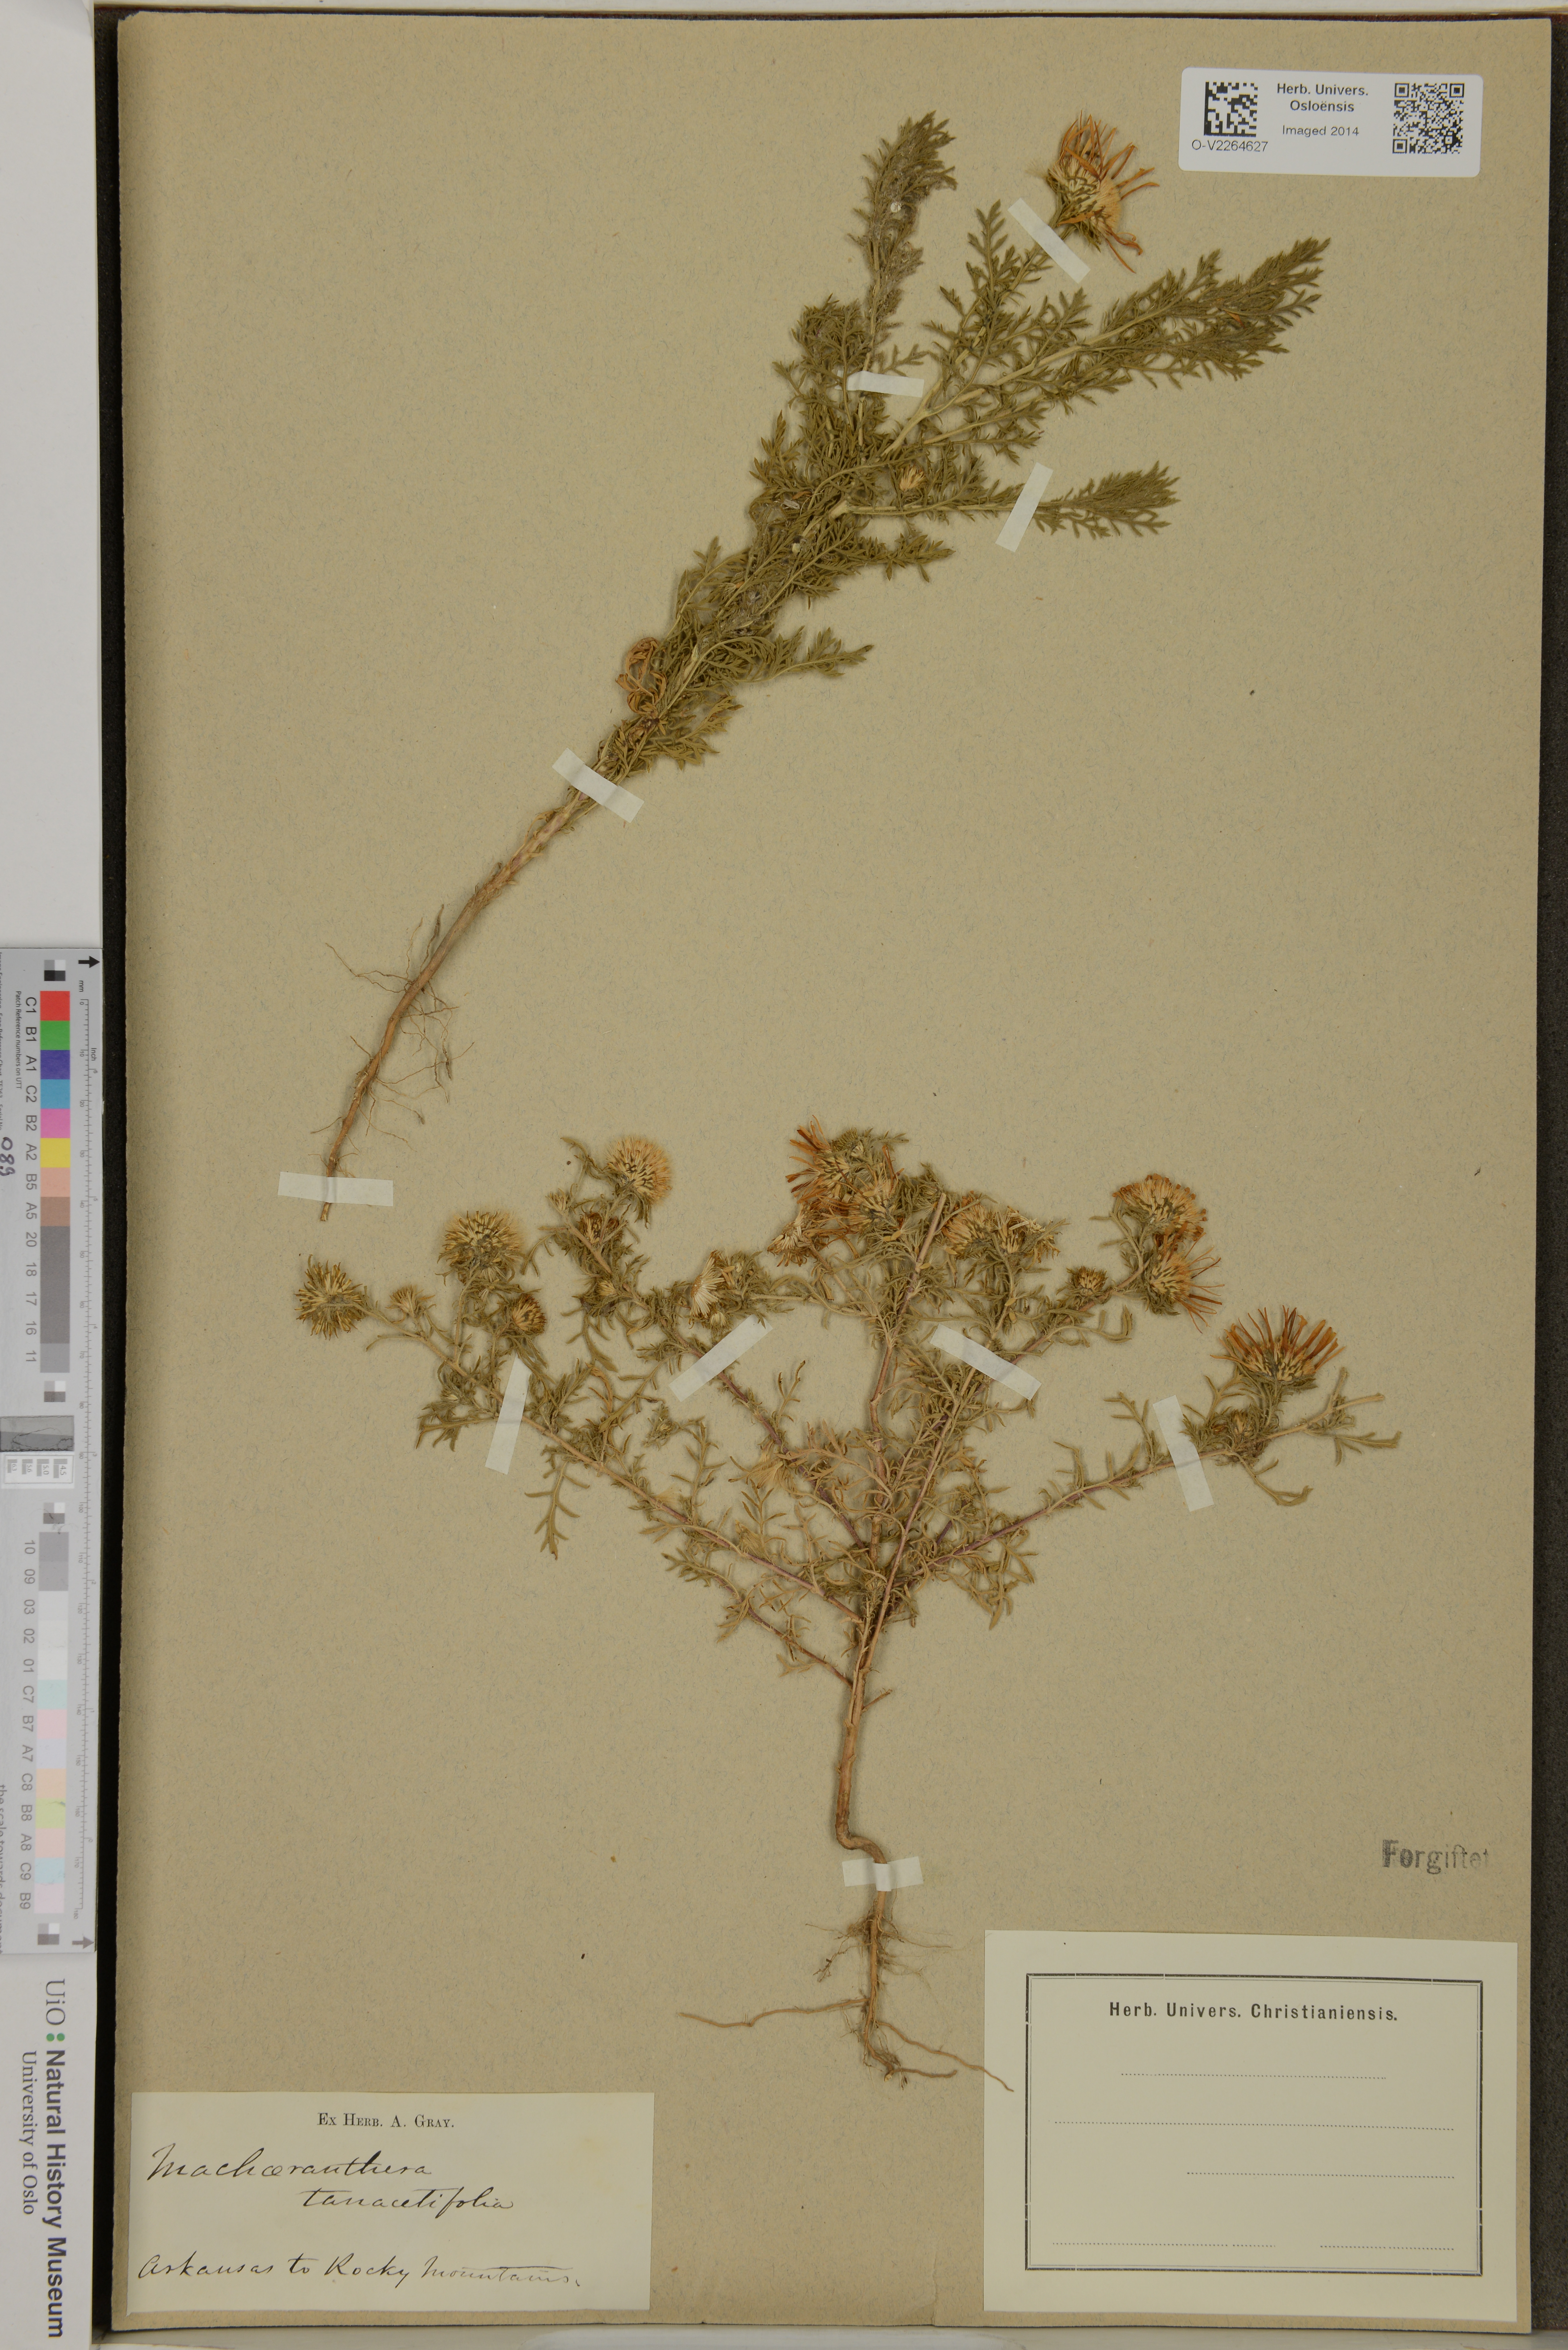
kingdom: Plantae
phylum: Tracheophyta
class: Magnoliopsida
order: Asterales
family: Asteraceae
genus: Machaeranthera
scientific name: Machaeranthera tanacetifolia
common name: Tansy-aster
